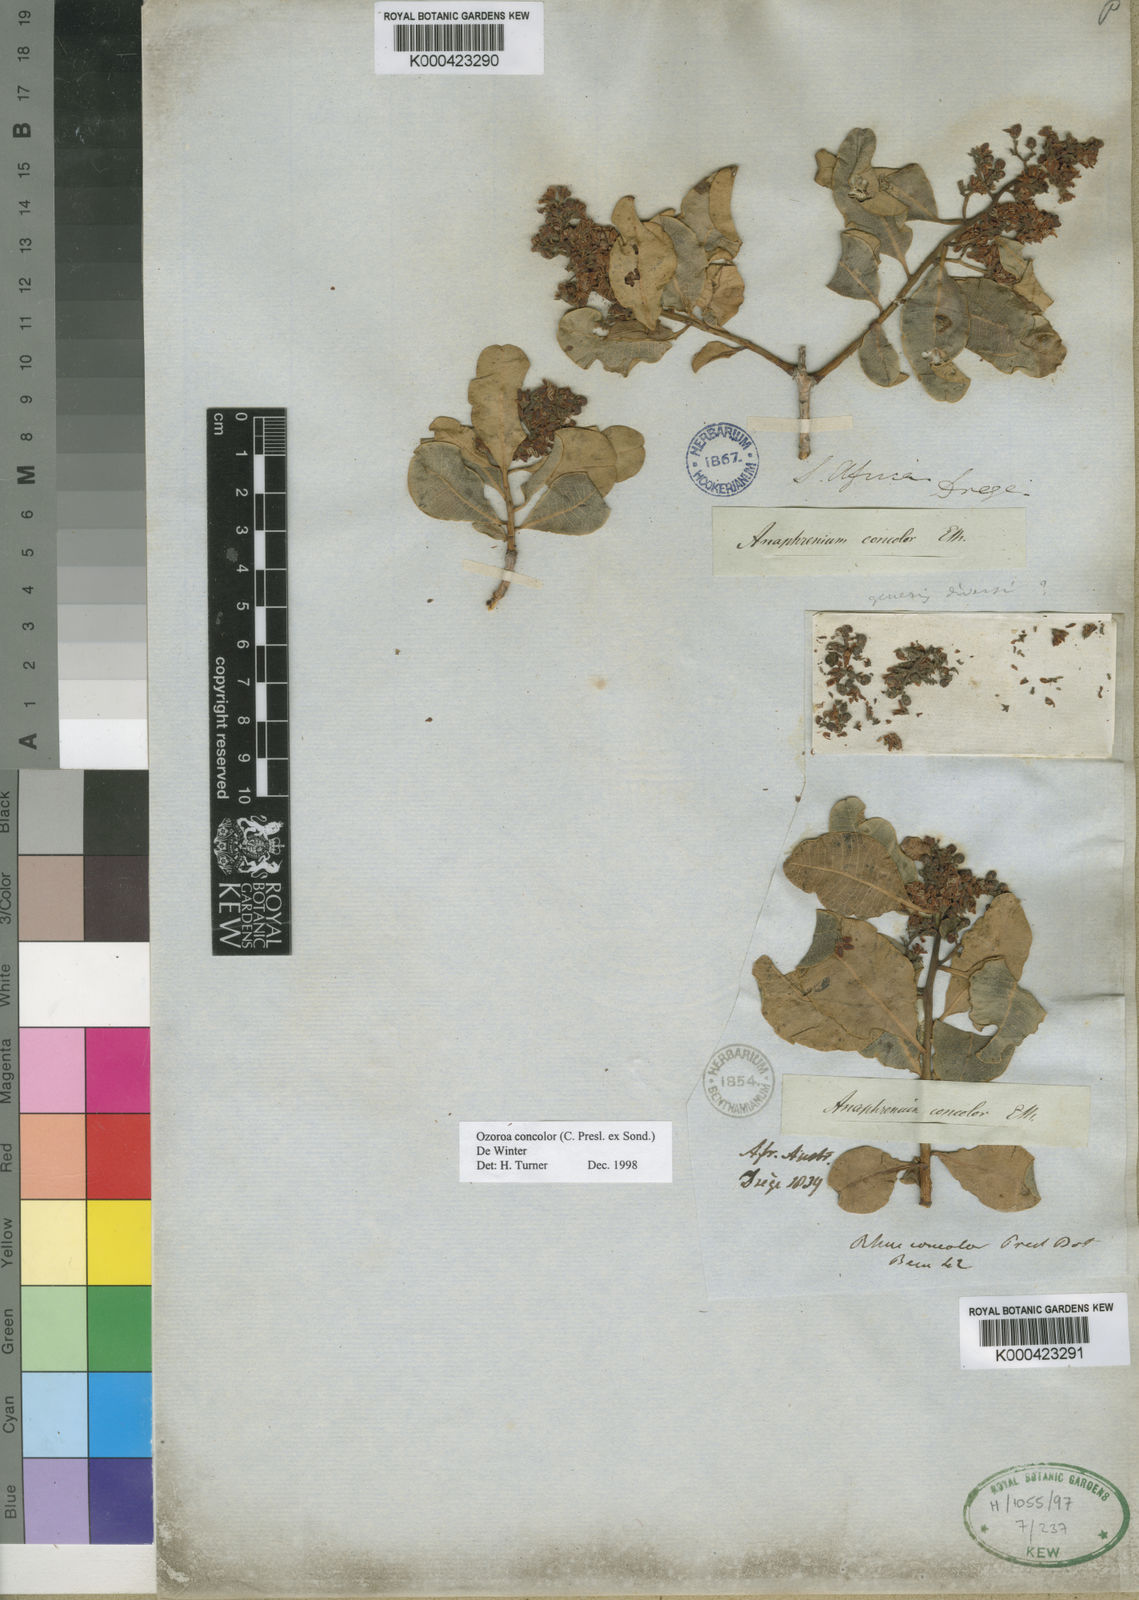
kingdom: Plantae
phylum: Tracheophyta
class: Magnoliopsida
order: Sapindales
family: Anacardiaceae
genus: Ozoroa
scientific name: Ozoroa concolor
